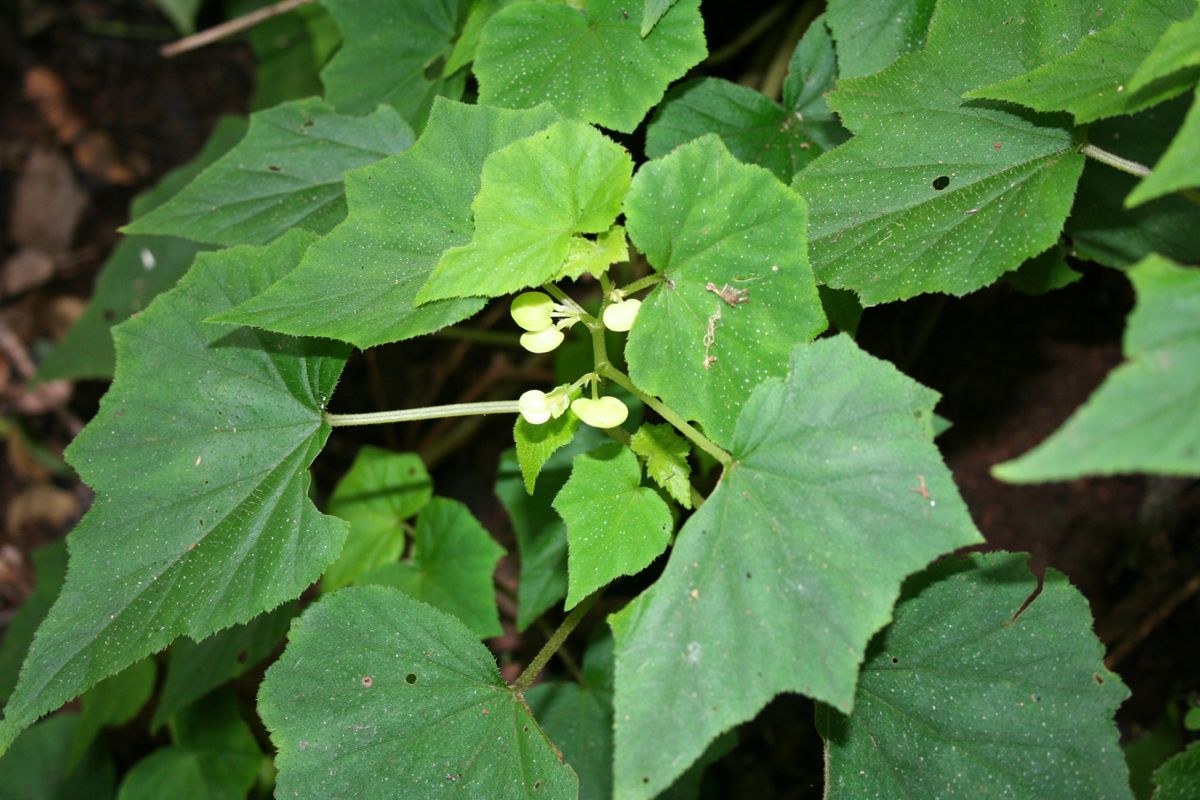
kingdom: Plantae
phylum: Tracheophyta
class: Magnoliopsida
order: Cucurbitales
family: Begoniaceae
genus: Begonia
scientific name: Begonia cebadillensis
